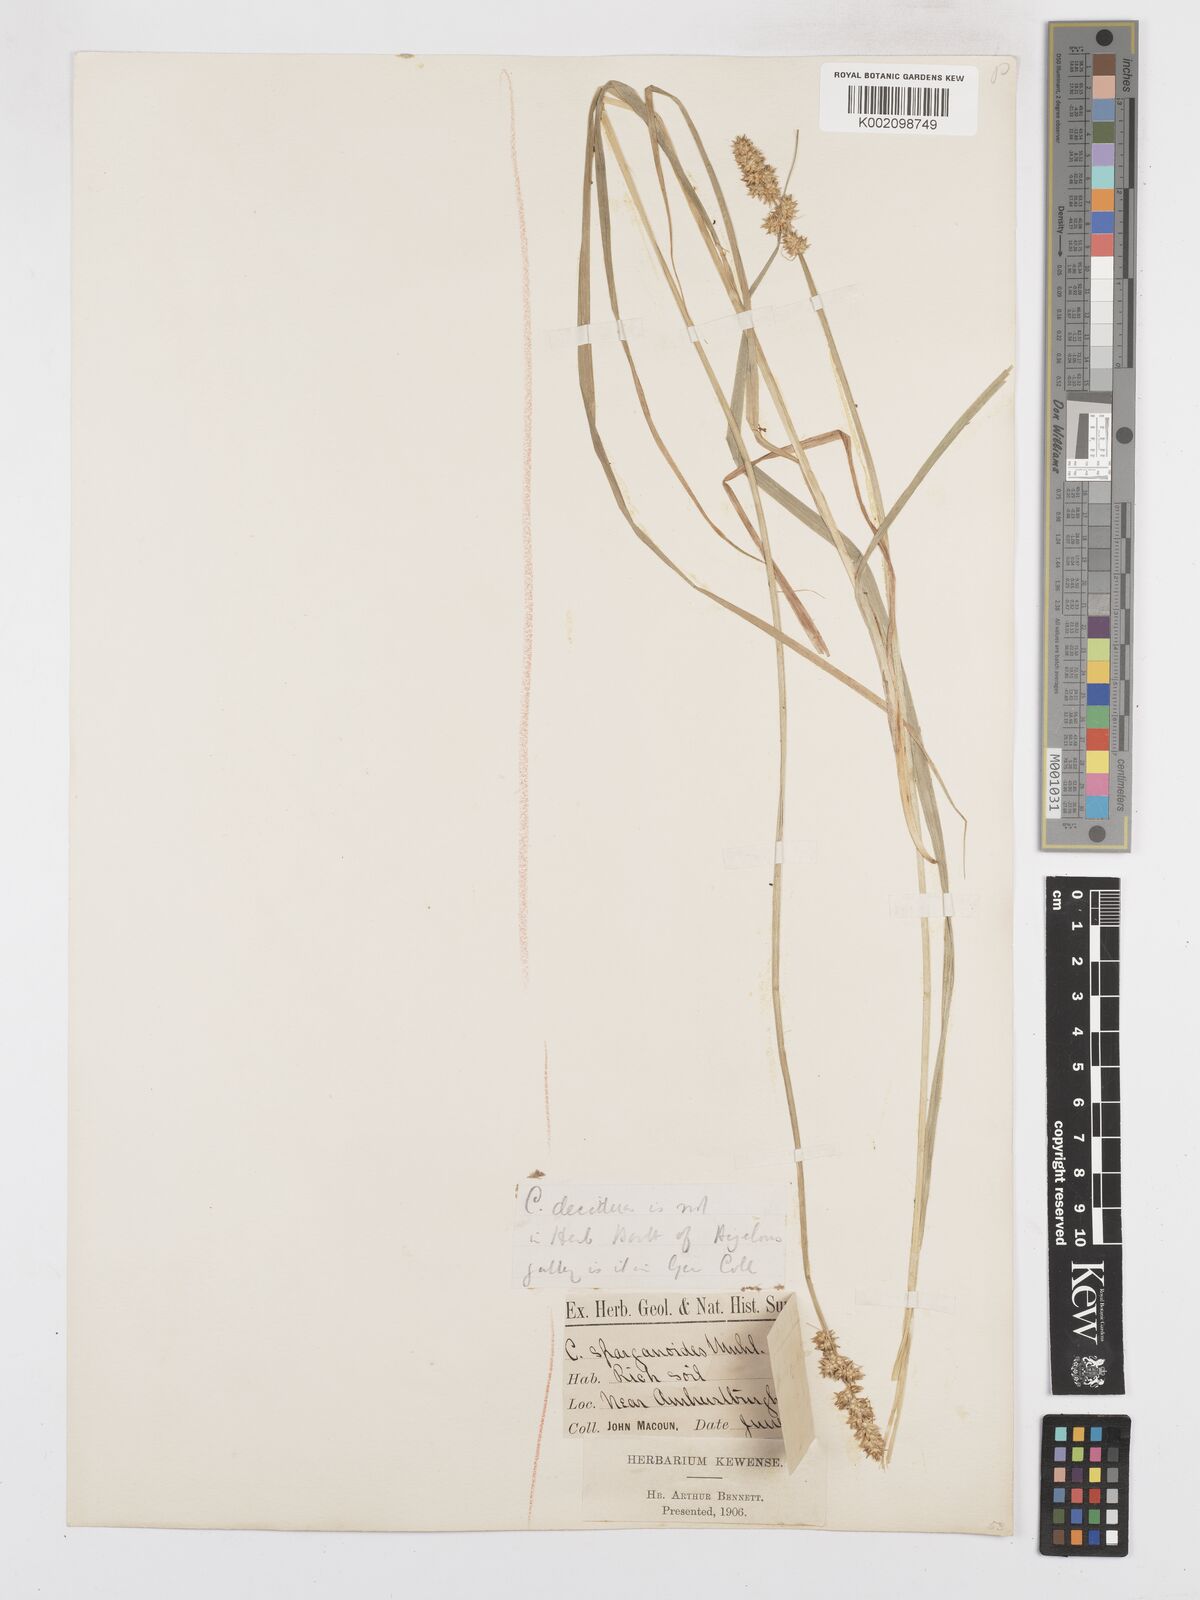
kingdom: Plantae
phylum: Tracheophyta
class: Liliopsida
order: Poales
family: Cyperaceae
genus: Carex
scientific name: Carex sparganioides
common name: Burreed sedge
